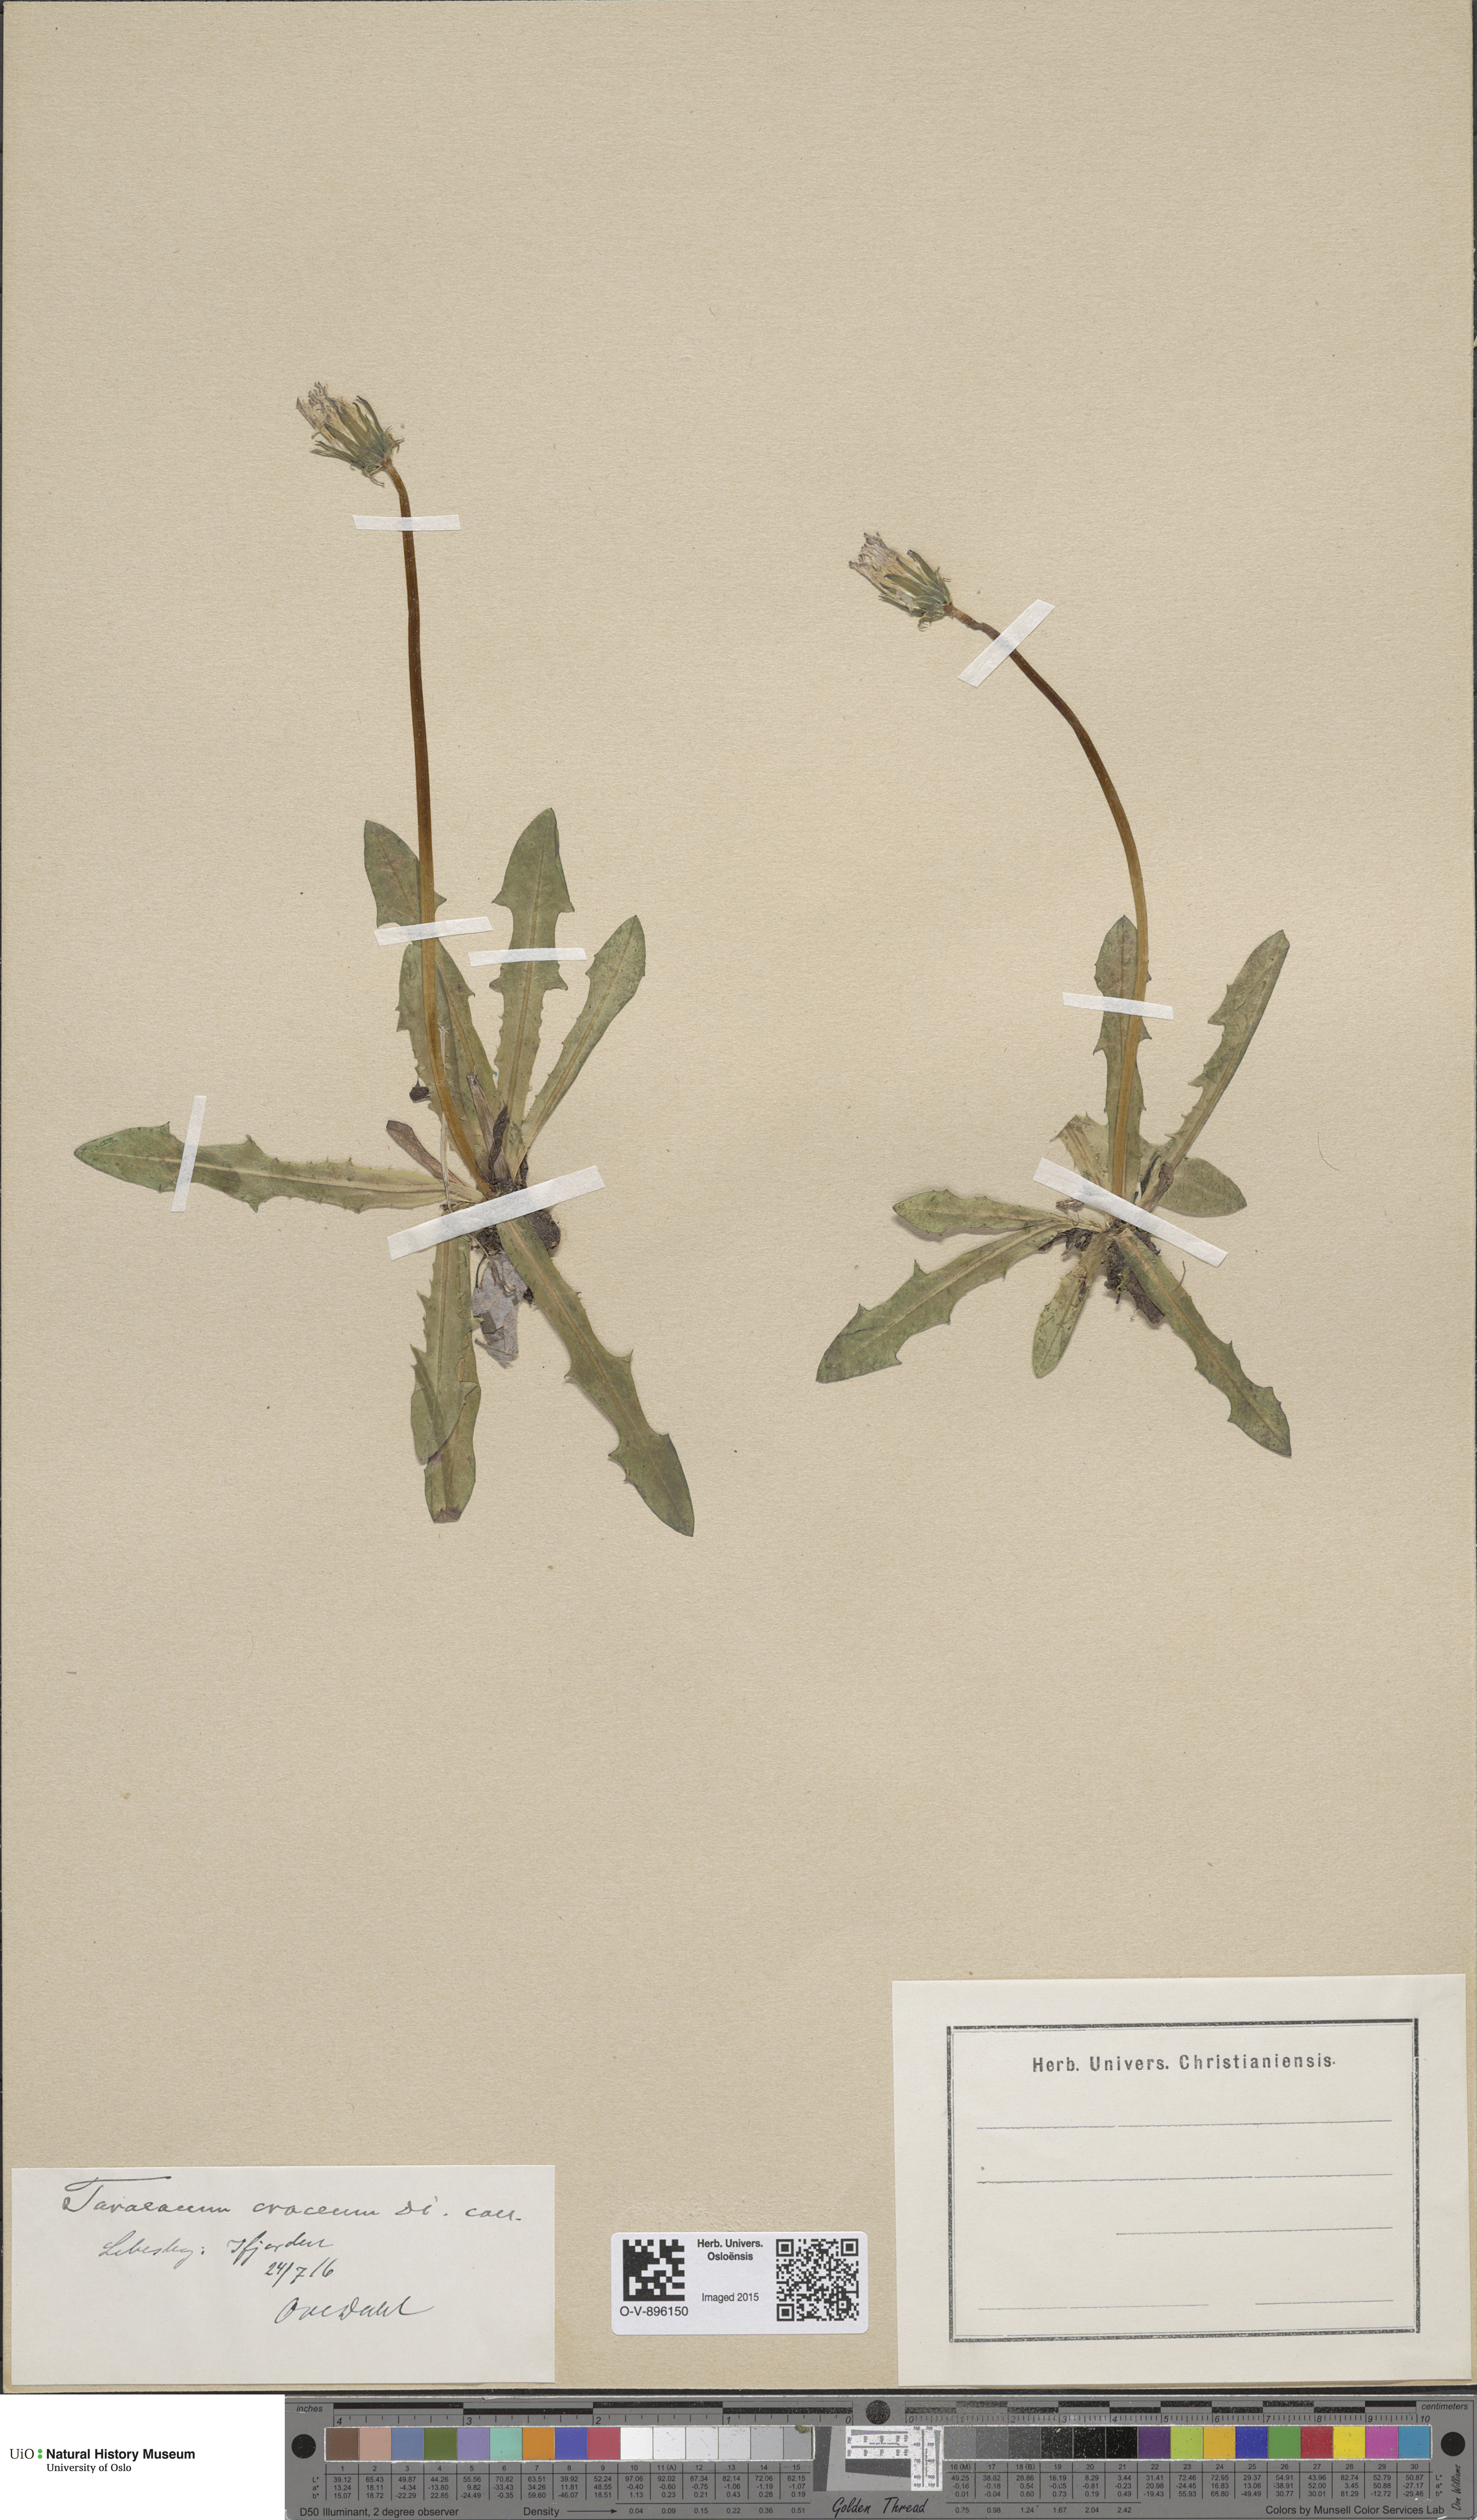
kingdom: Plantae
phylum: Tracheophyta
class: Magnoliopsida
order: Asterales
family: Asteraceae
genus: Taraxacum
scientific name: Taraxacum croceum
